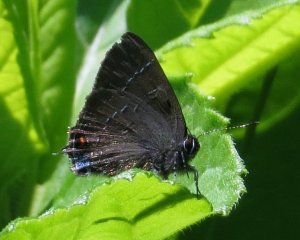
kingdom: Animalia
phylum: Arthropoda
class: Insecta
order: Lepidoptera
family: Lycaenidae
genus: Satyrium
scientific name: Satyrium calanus
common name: Banded Hairstreak
